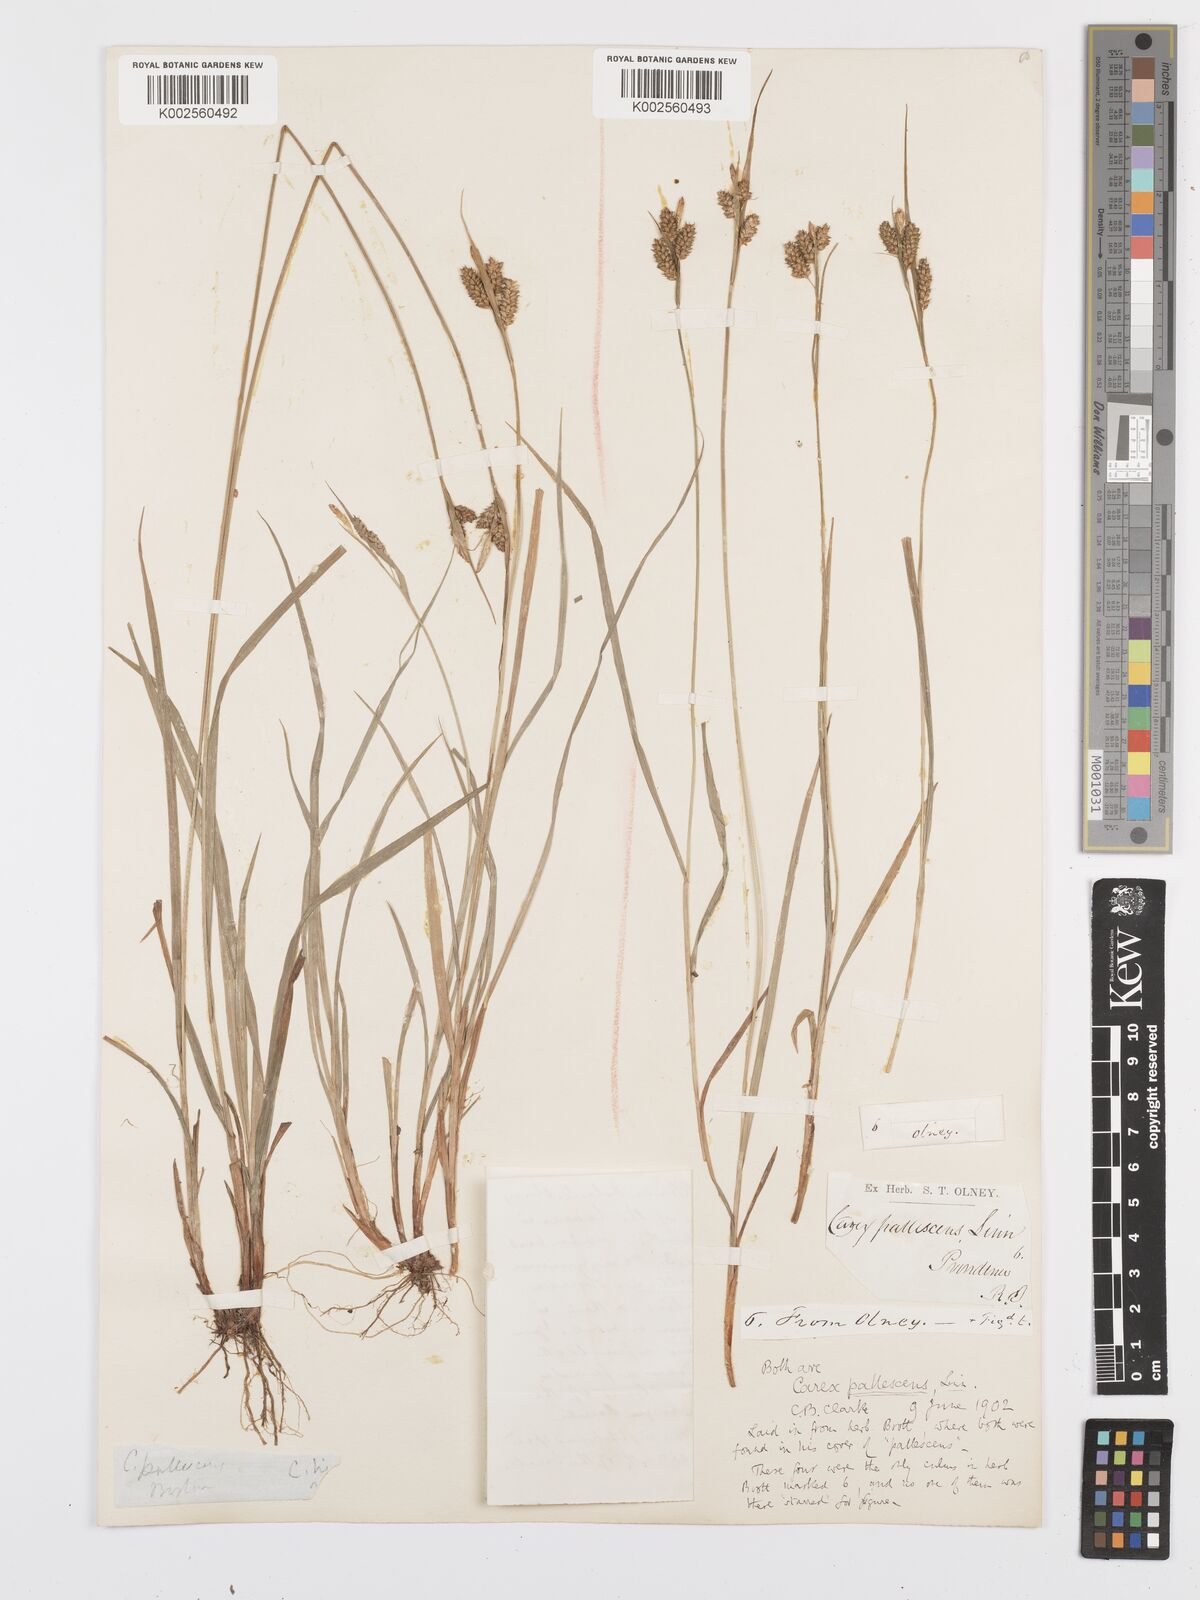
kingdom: Plantae
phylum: Tracheophyta
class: Liliopsida
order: Poales
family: Cyperaceae
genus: Carex
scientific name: Carex pallescens
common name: Pale sedge
